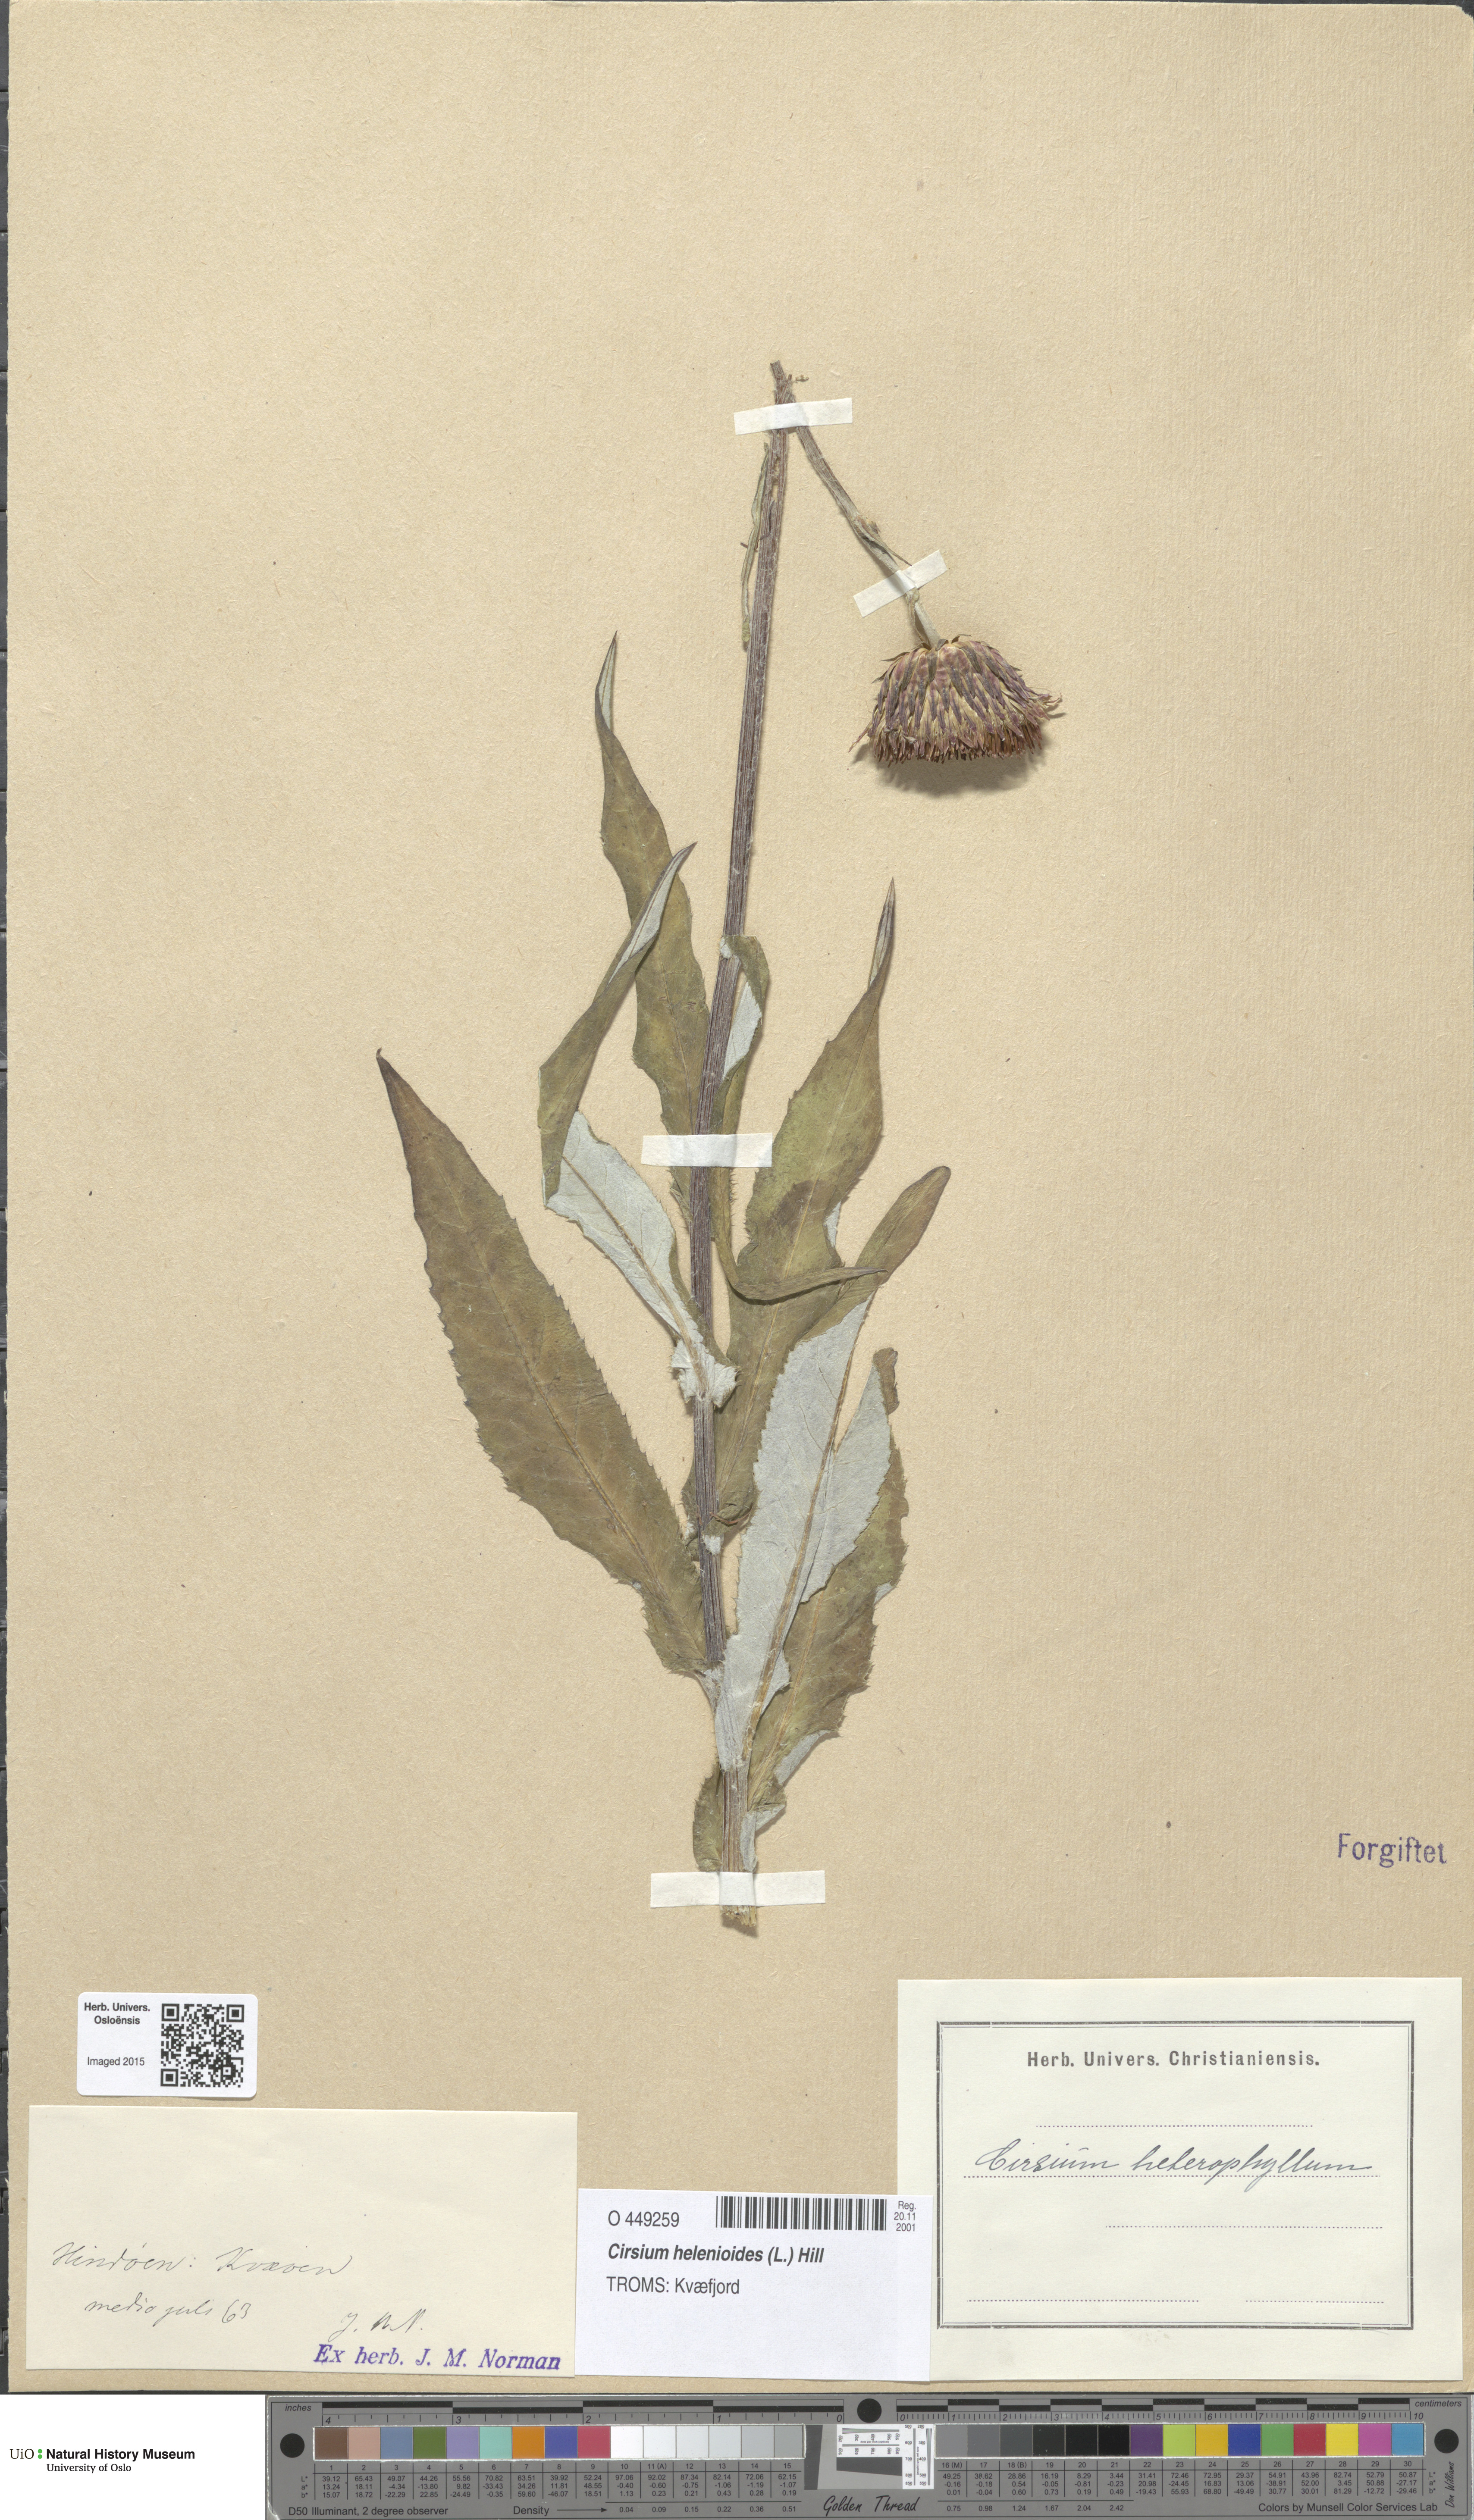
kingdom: Plantae
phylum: Tracheophyta
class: Magnoliopsida
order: Asterales
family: Asteraceae
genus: Cirsium
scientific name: Cirsium heterophyllum
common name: Melancholy thistle
